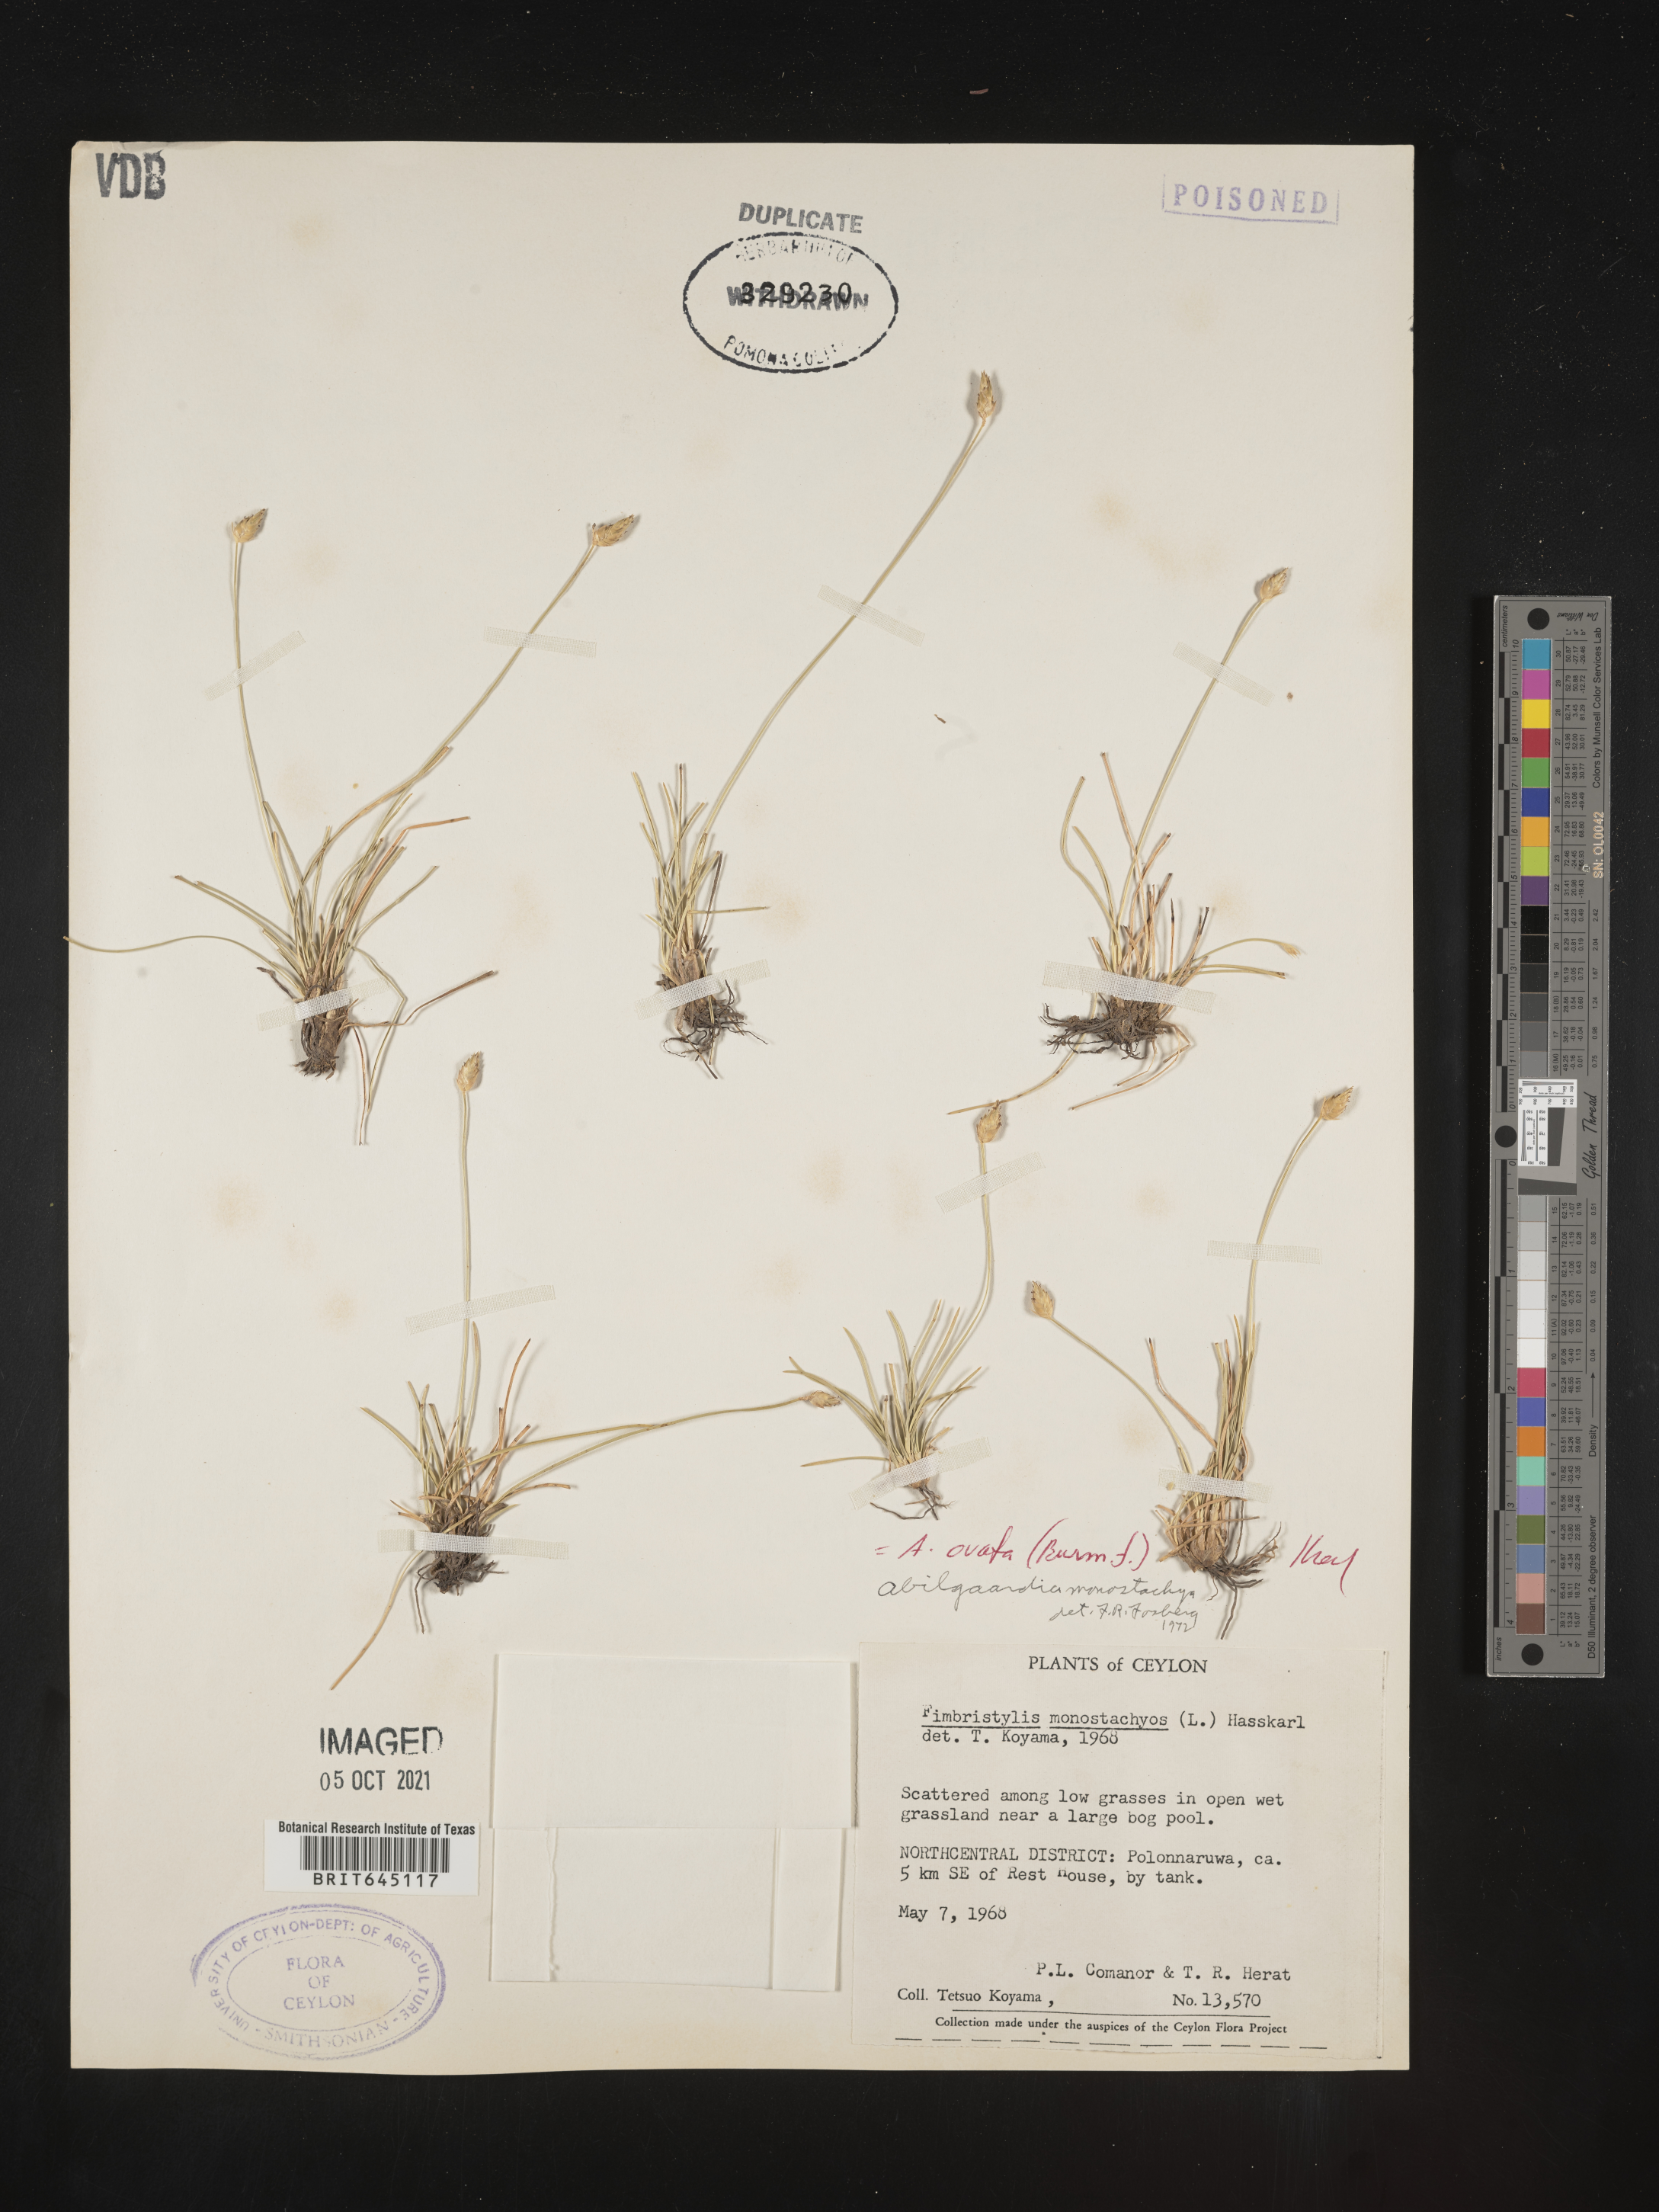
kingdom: Plantae
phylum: Tracheophyta
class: Liliopsida
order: Poales
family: Cyperaceae
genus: Abildgaardia
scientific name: Abildgaardia ovata
